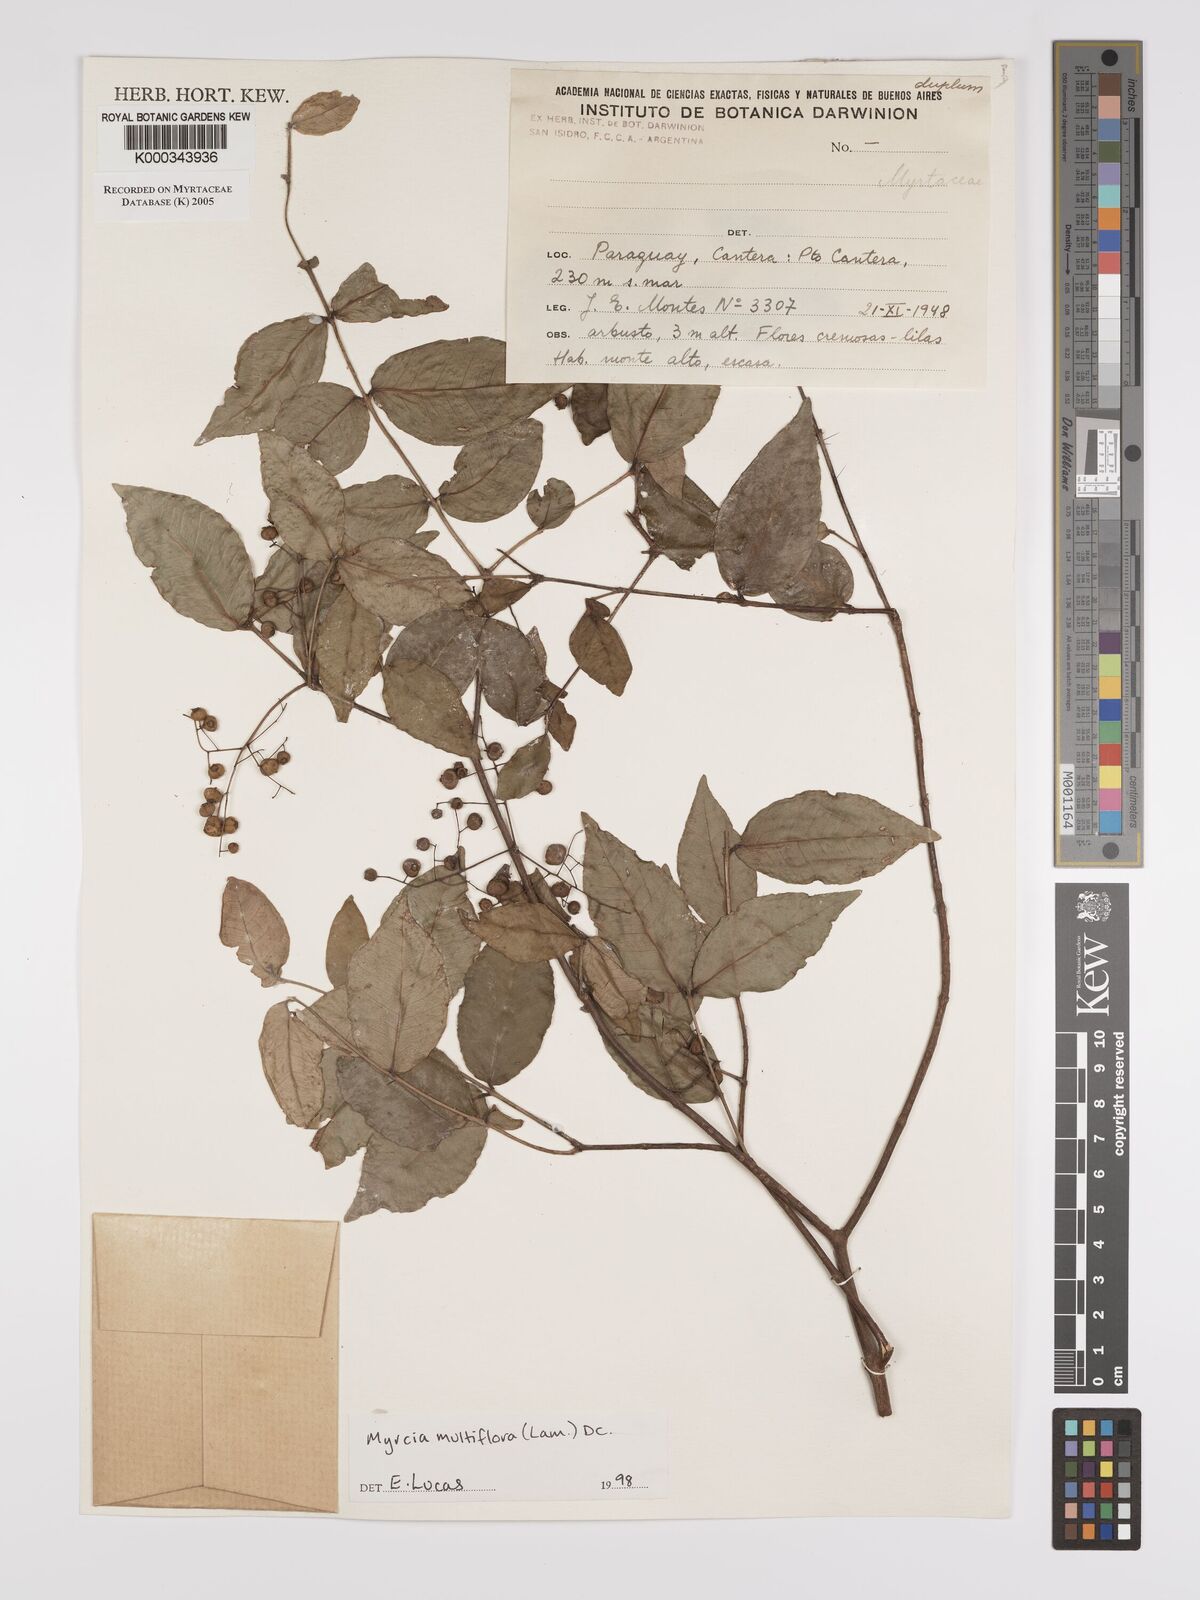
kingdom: Plantae
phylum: Tracheophyta
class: Magnoliopsida
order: Myrtales
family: Myrtaceae
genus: Myrcia
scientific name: Myrcia multiflora
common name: Pedra hume
